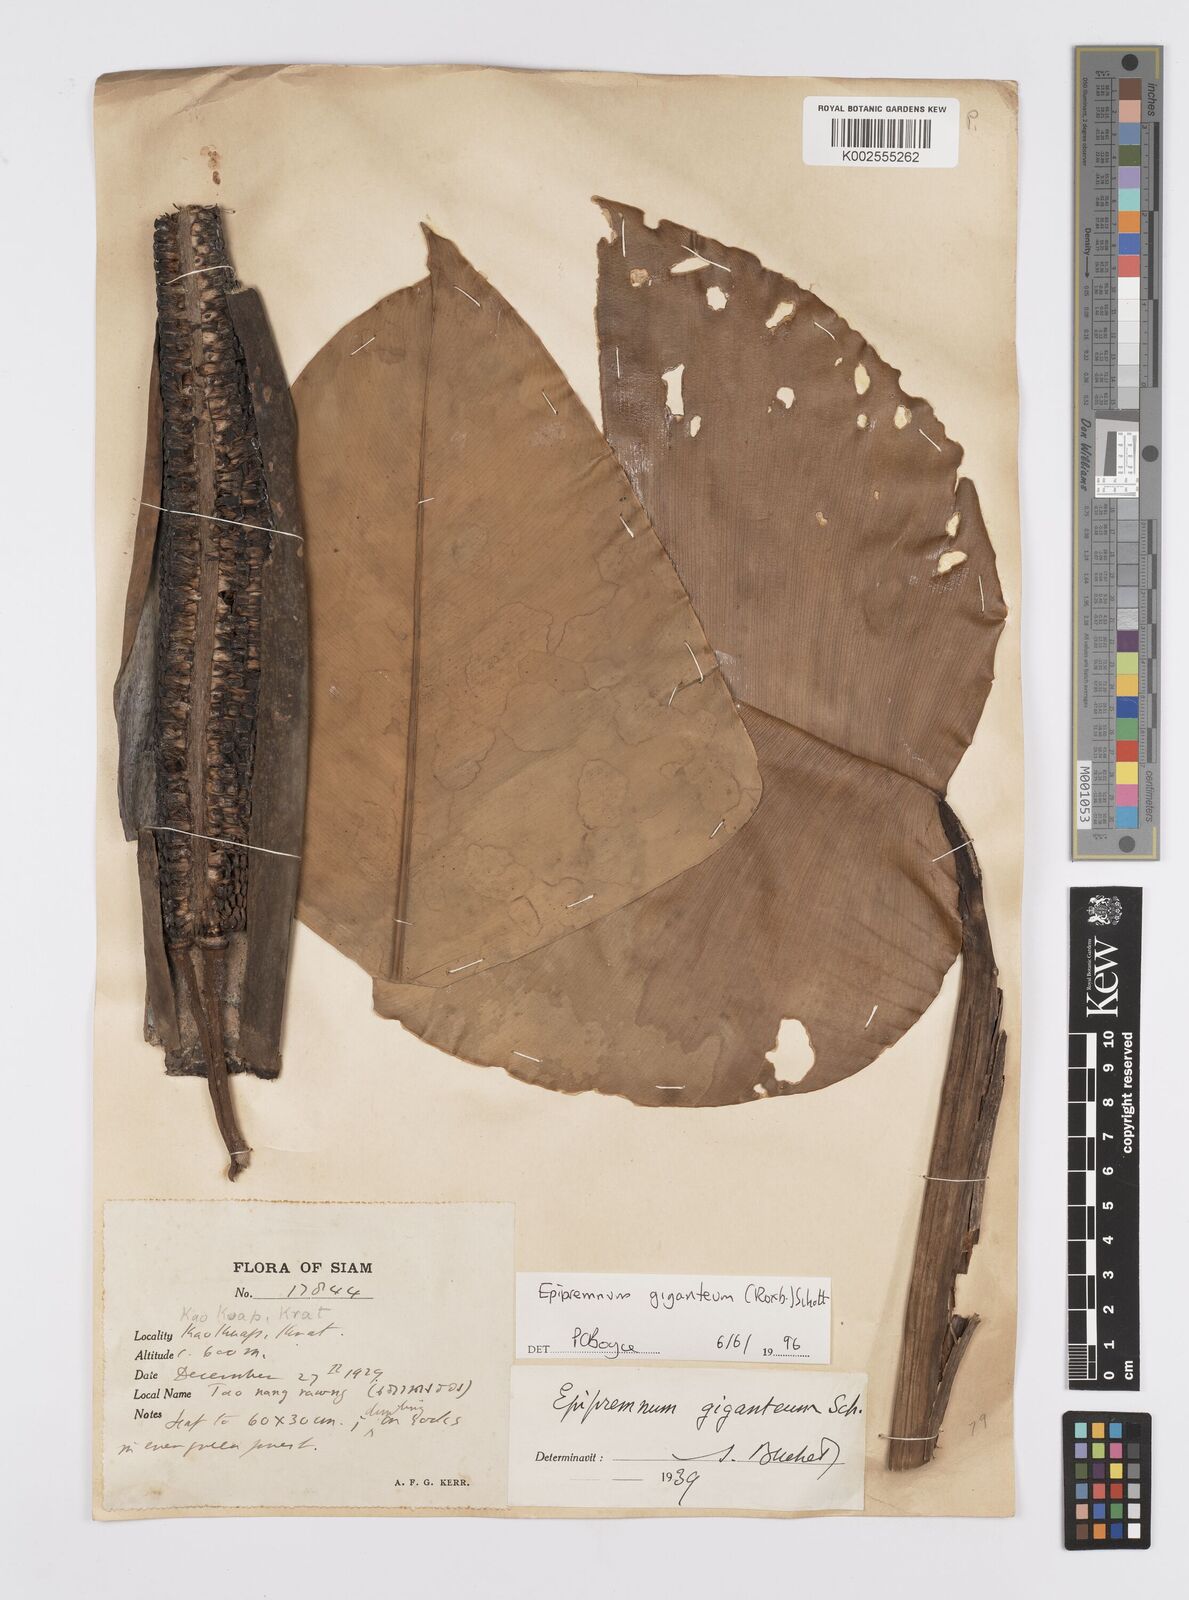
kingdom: Plantae
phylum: Tracheophyta
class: Liliopsida
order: Alismatales
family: Araceae
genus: Epipremnum
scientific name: Epipremnum giganteum
